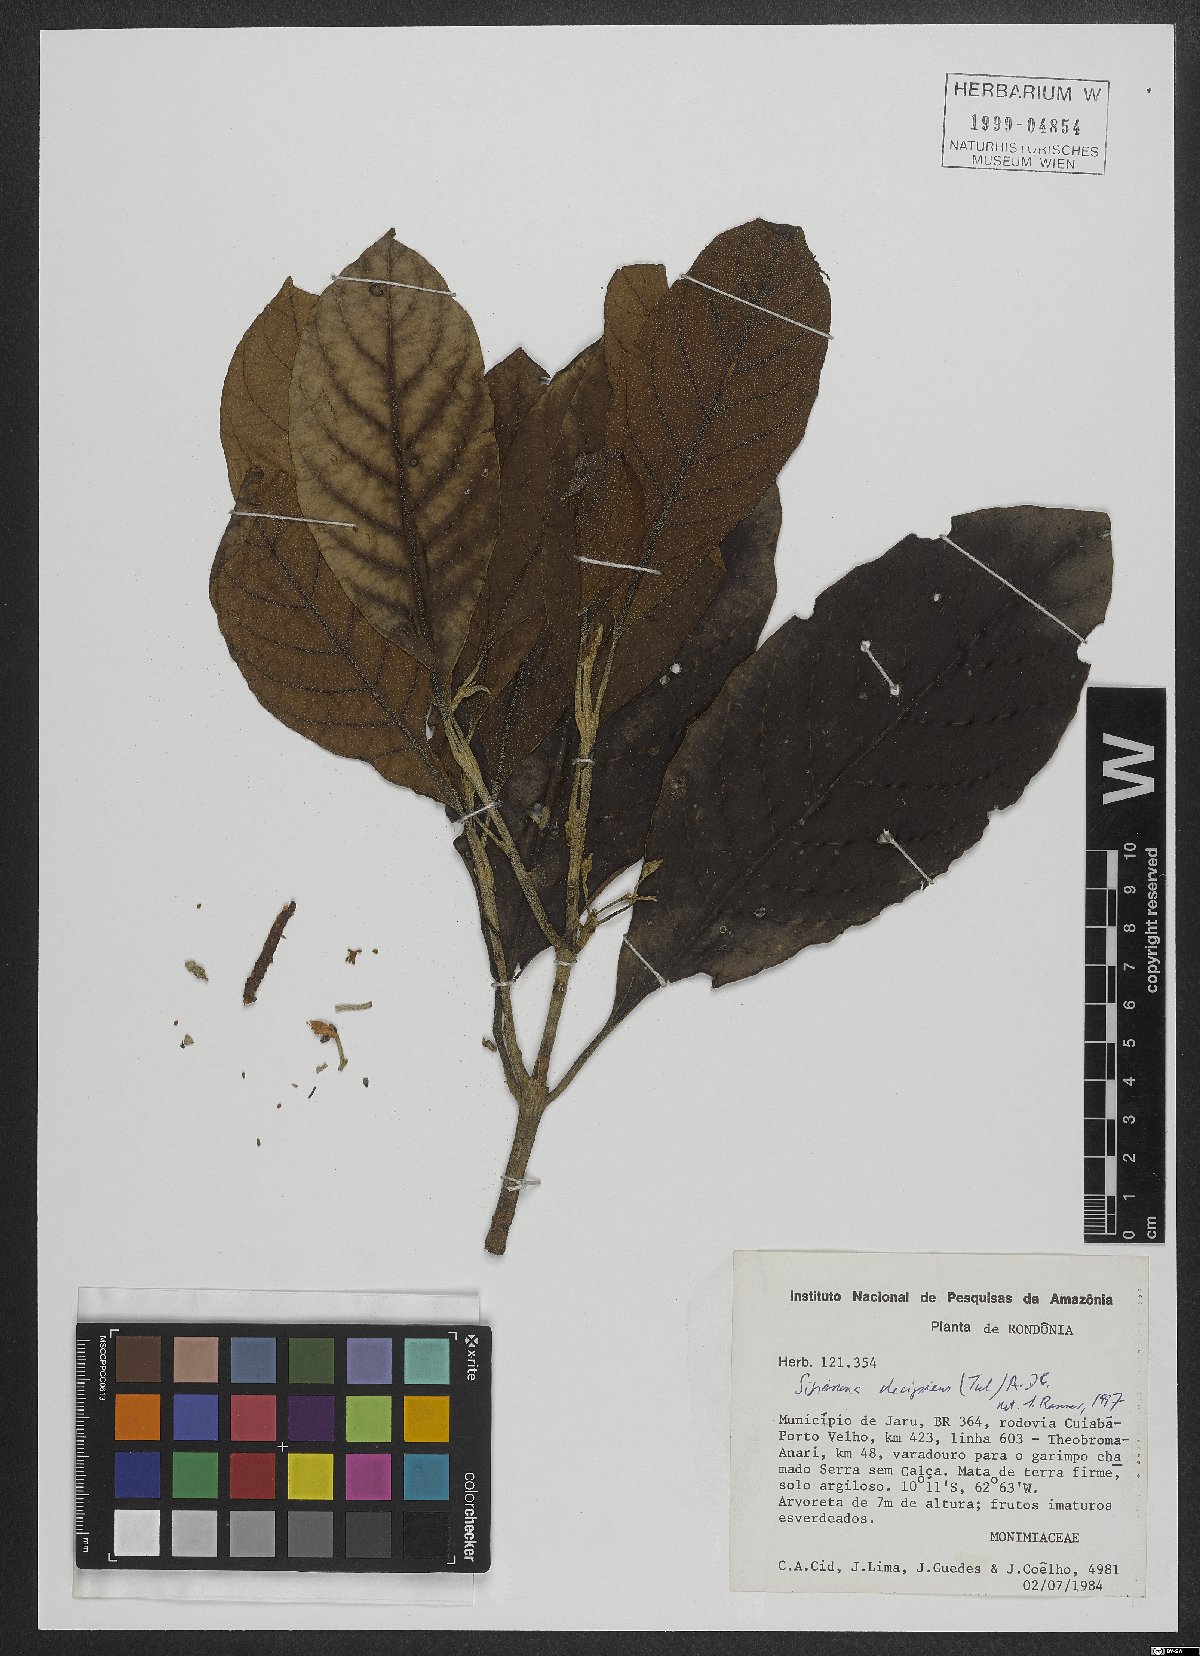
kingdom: Plantae
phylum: Tracheophyta
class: Magnoliopsida
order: Laurales
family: Siparunaceae
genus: Siparuna
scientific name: Siparuna decipiens
